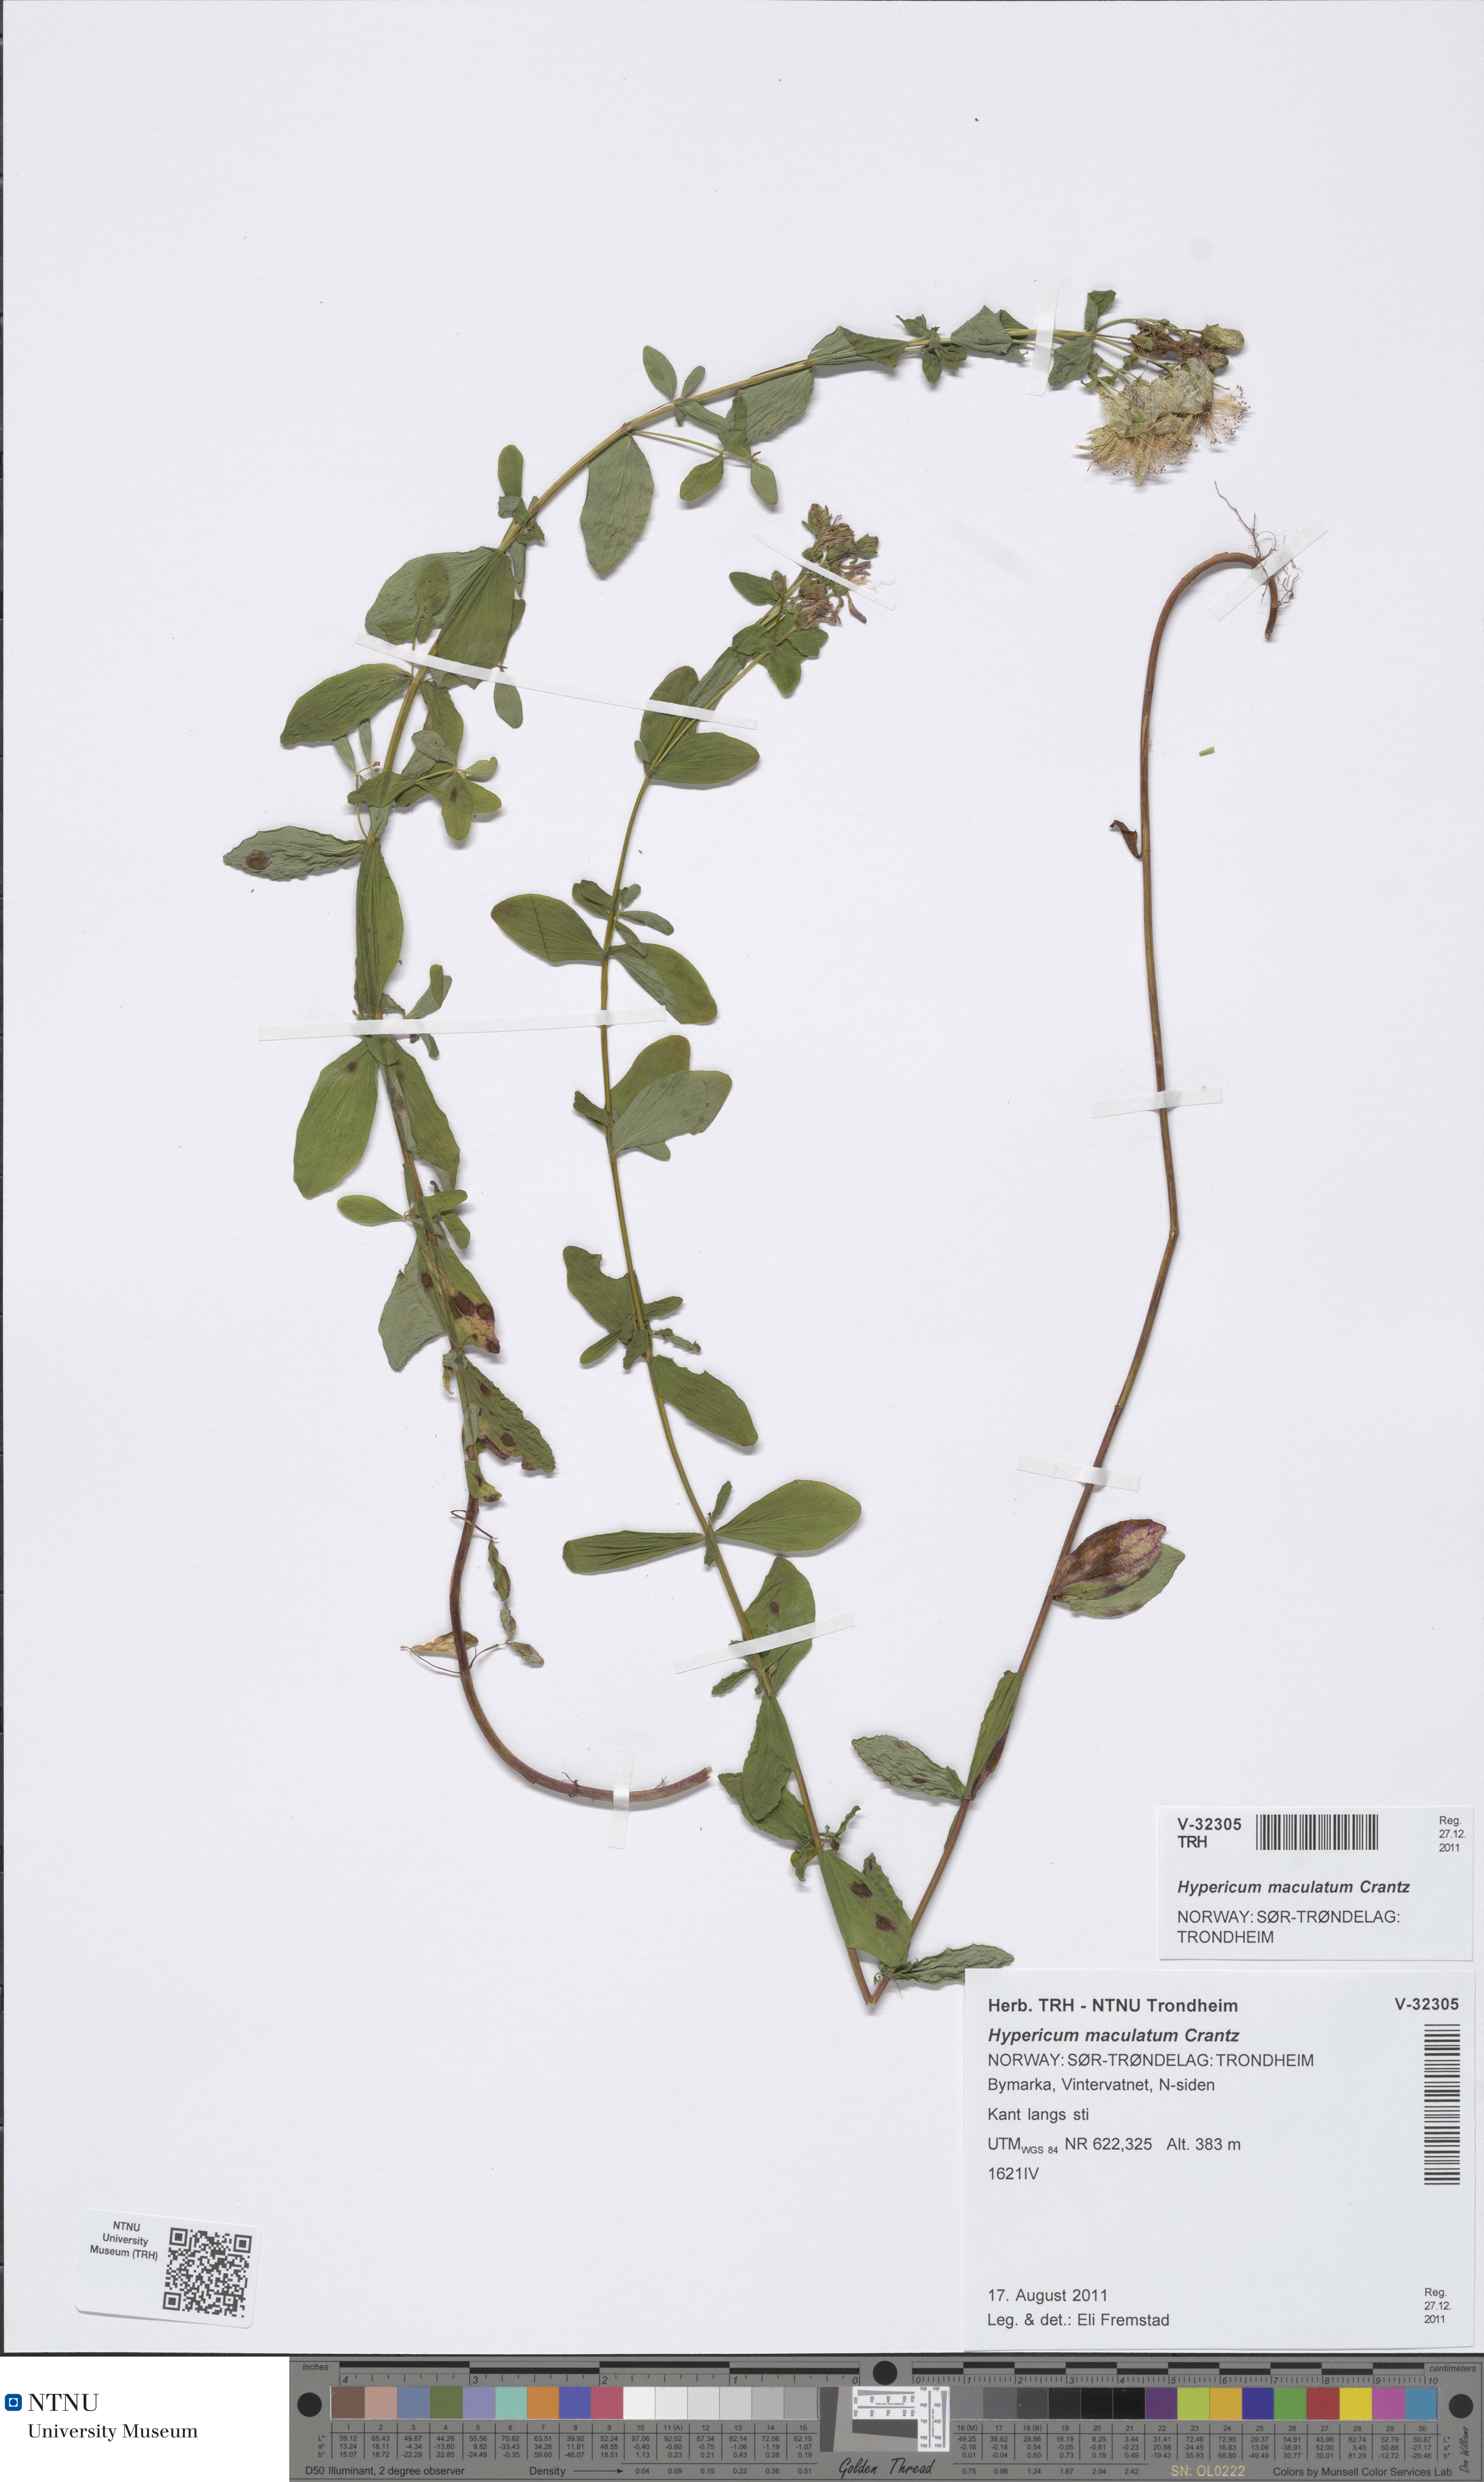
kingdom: Plantae
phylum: Tracheophyta
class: Magnoliopsida
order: Malpighiales
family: Hypericaceae
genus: Hypericum
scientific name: Hypericum maculatum
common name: Imperforate st. john's-wort
